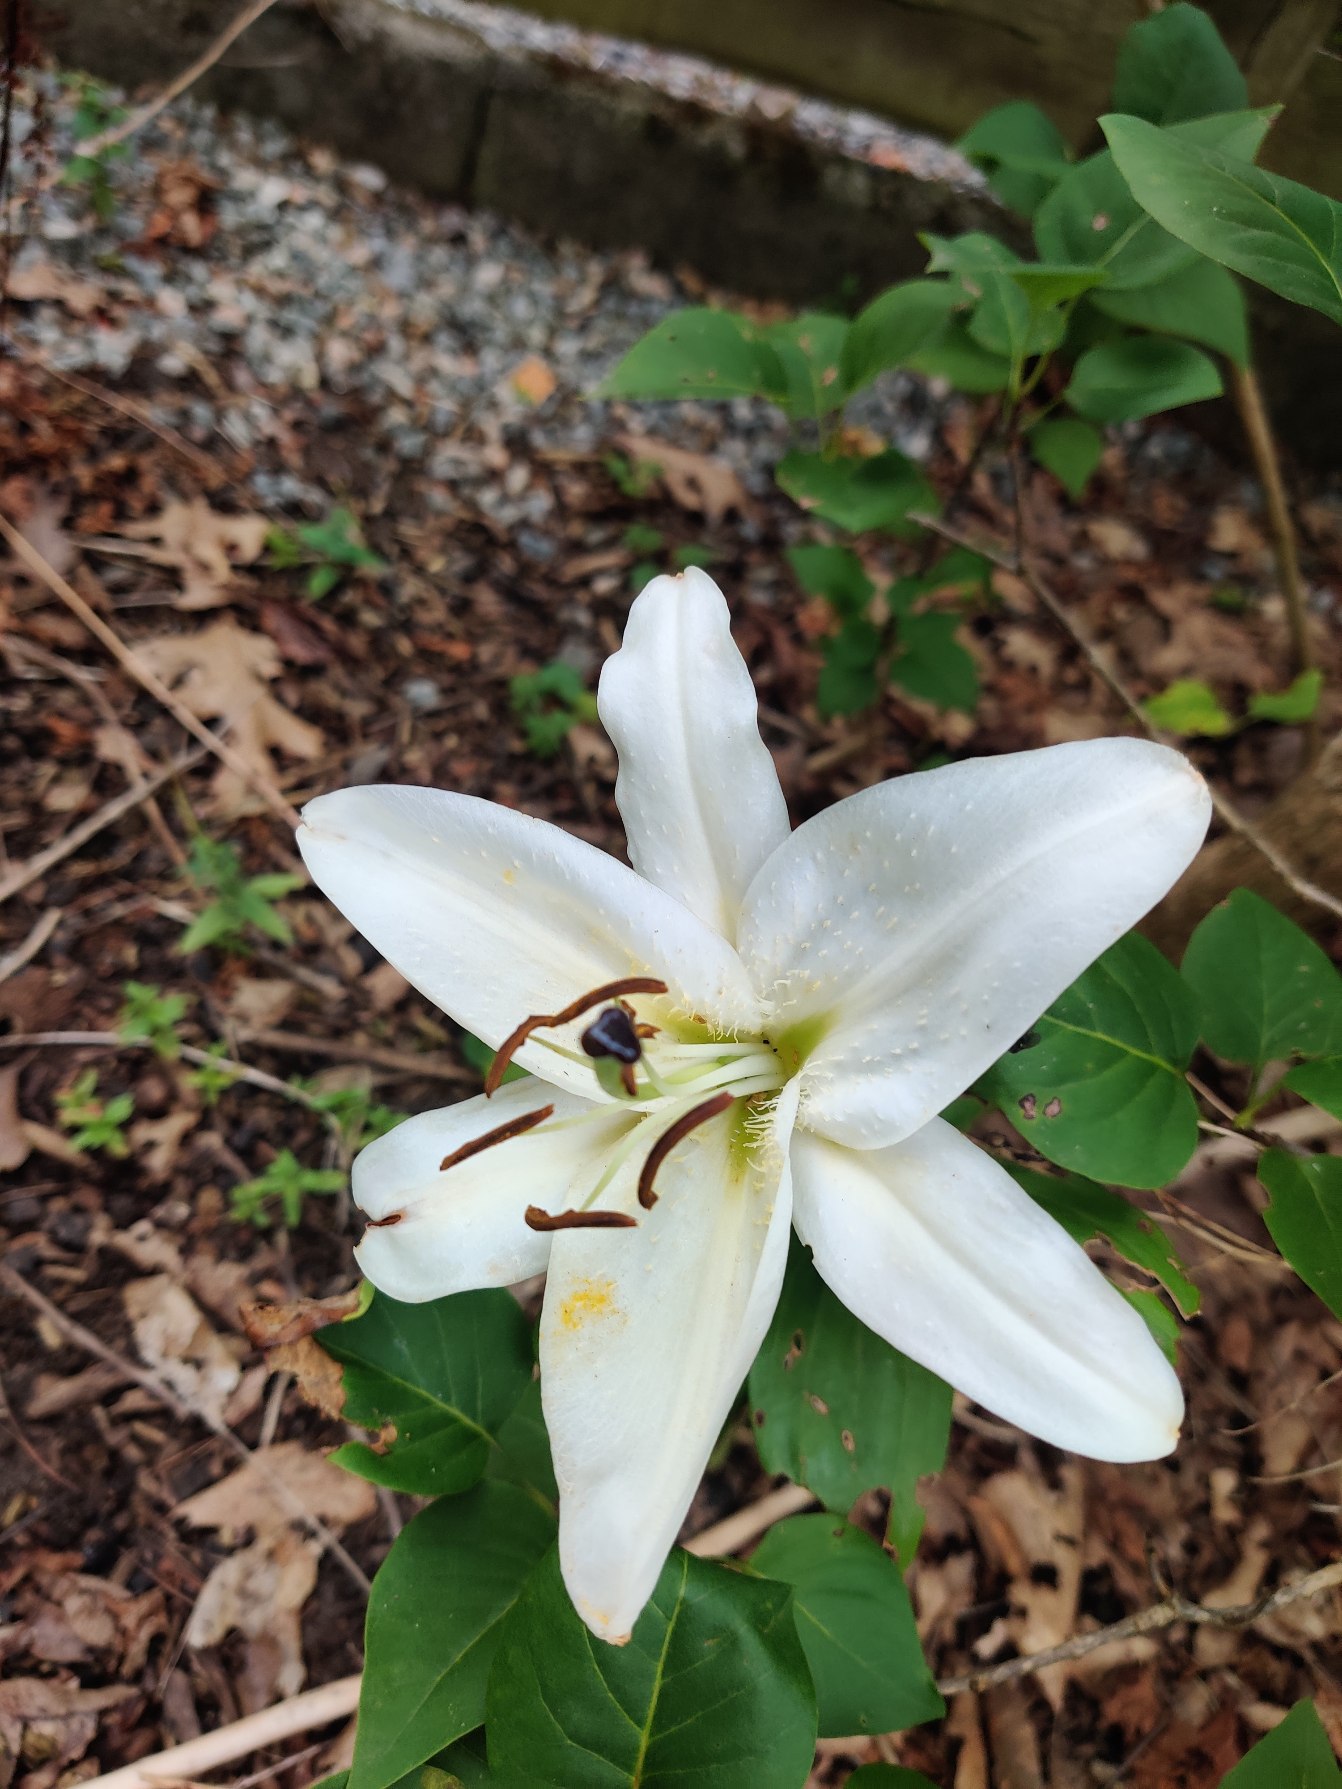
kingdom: Plantae
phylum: Tracheophyta
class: Liliopsida
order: Liliales
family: Liliaceae
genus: Lilium
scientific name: Lilium candidum
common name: Madonna-lilje
